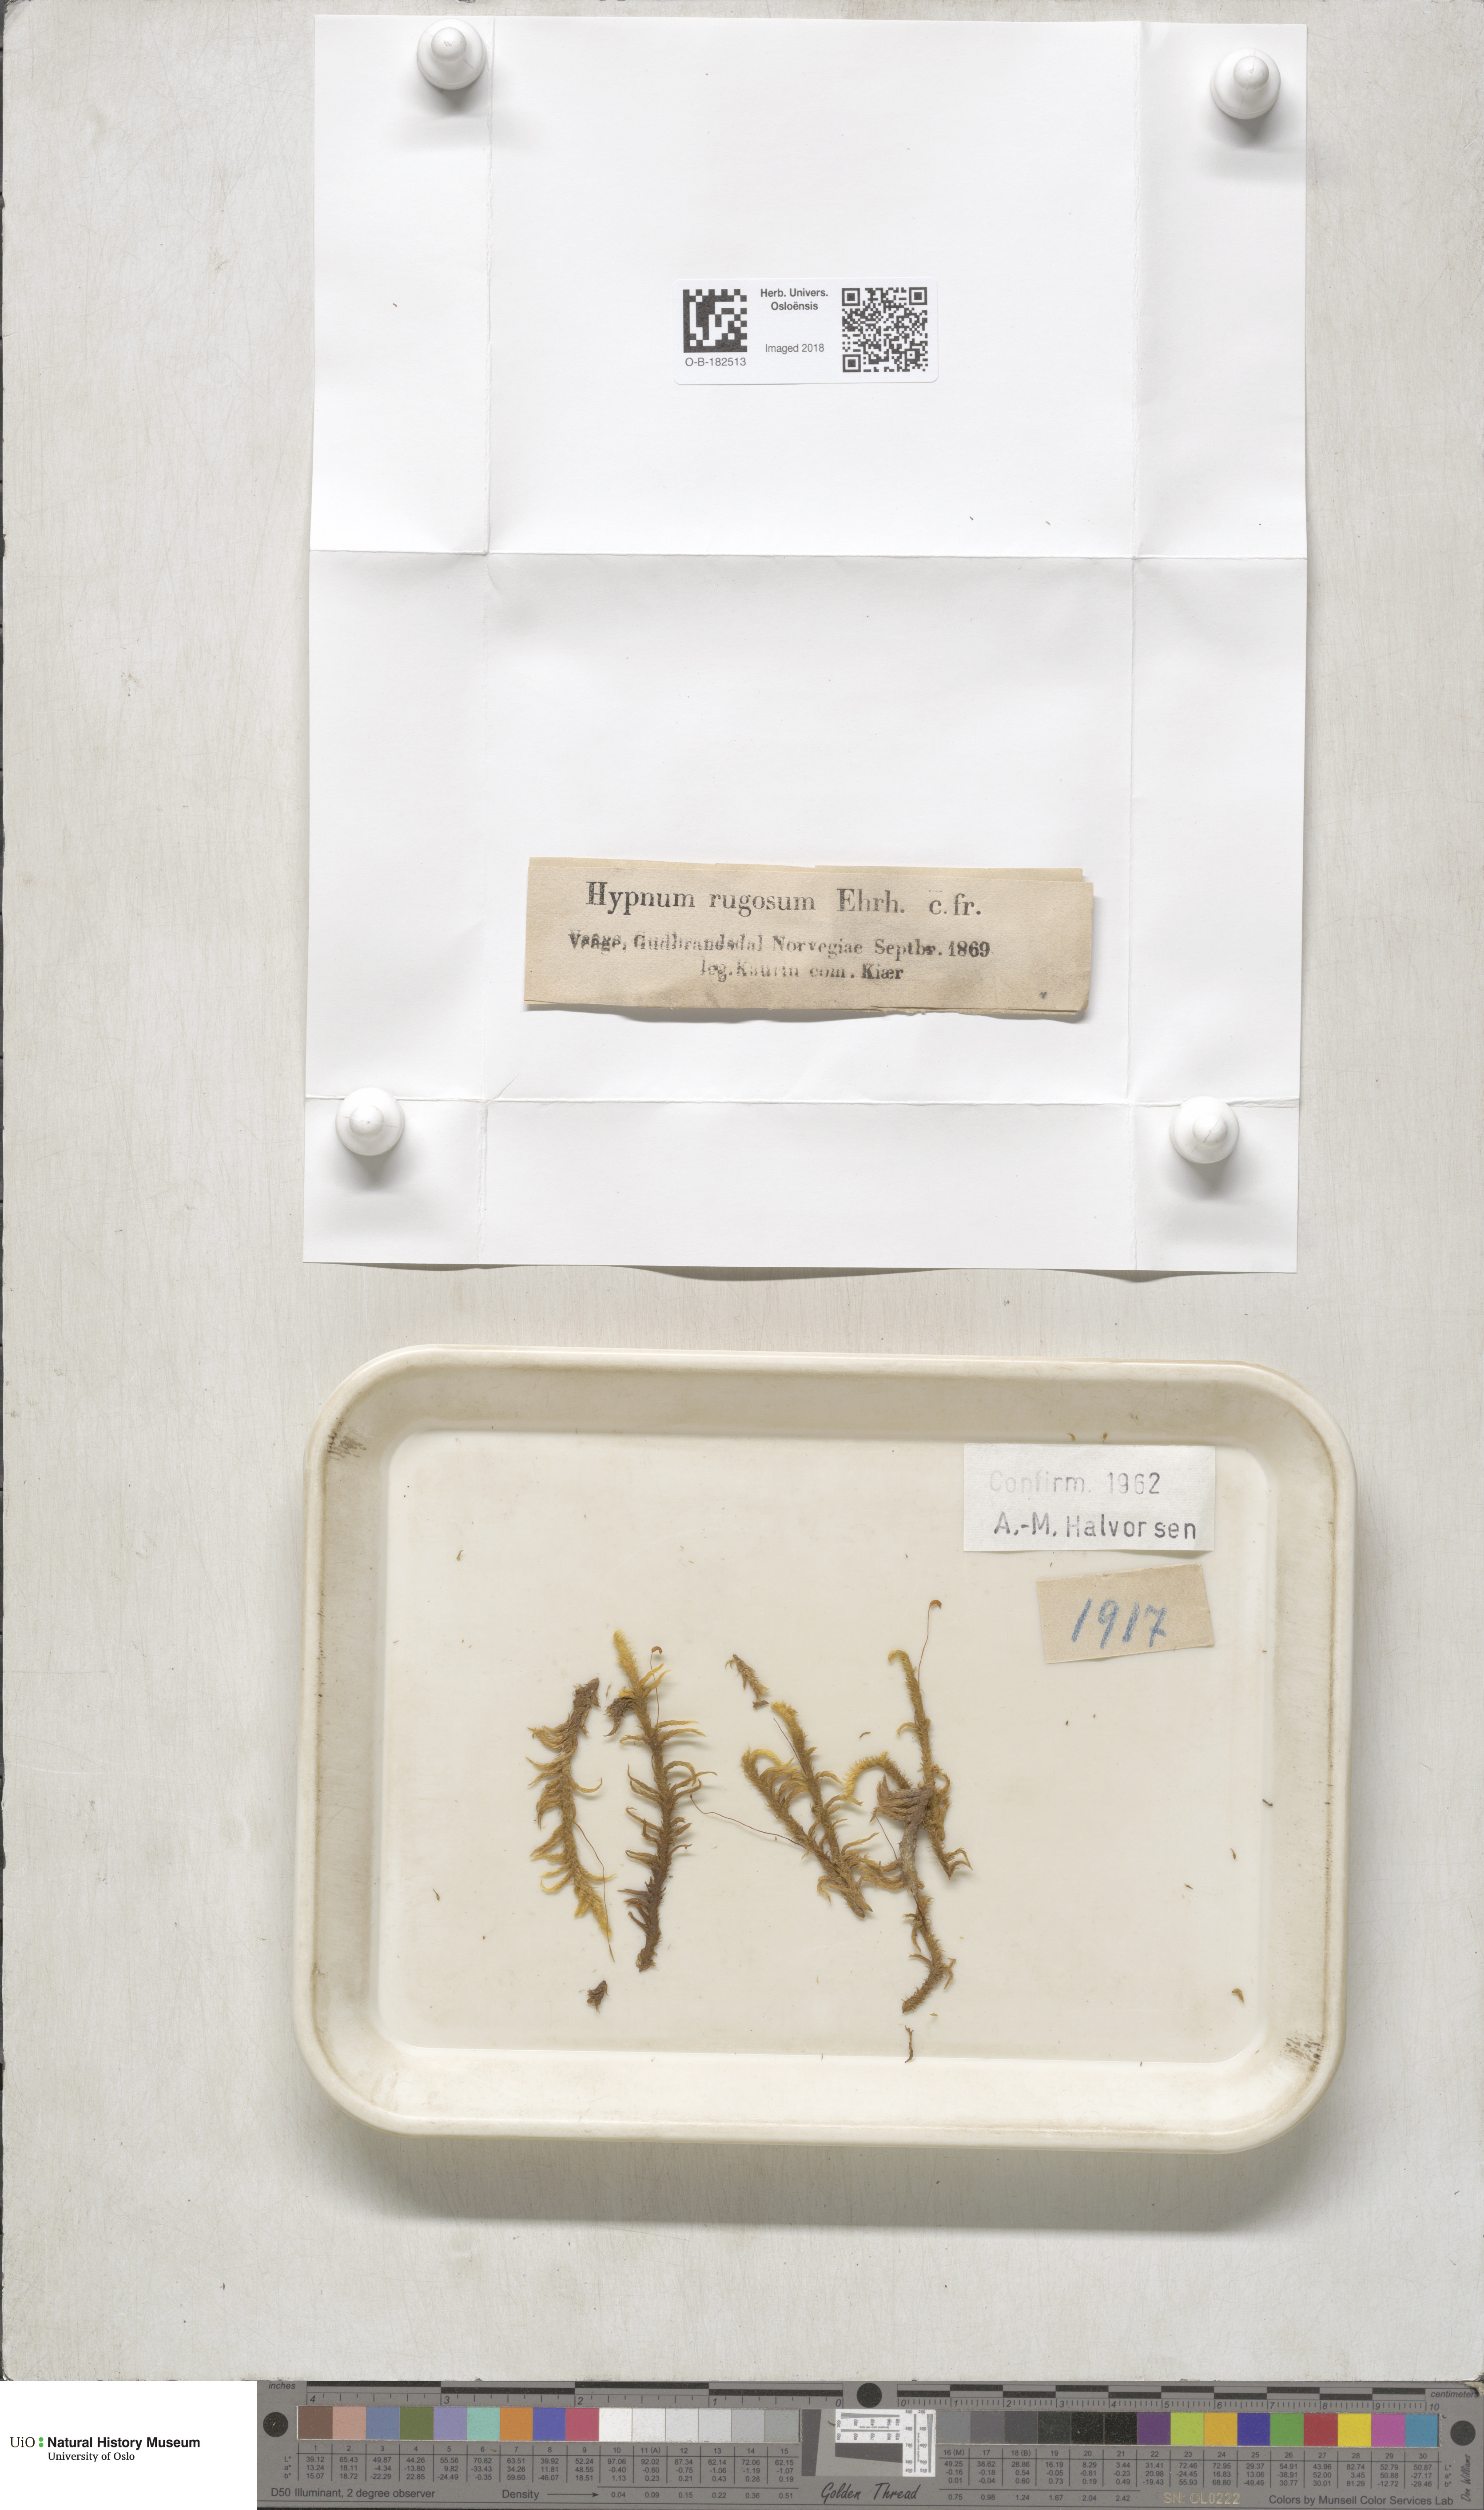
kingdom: Plantae
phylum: Bryophyta
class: Bryopsida
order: Hypnales
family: Rhytidiaceae
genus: Rhytidium
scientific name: Rhytidium rugosum
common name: Wrinkle-leaved moss
